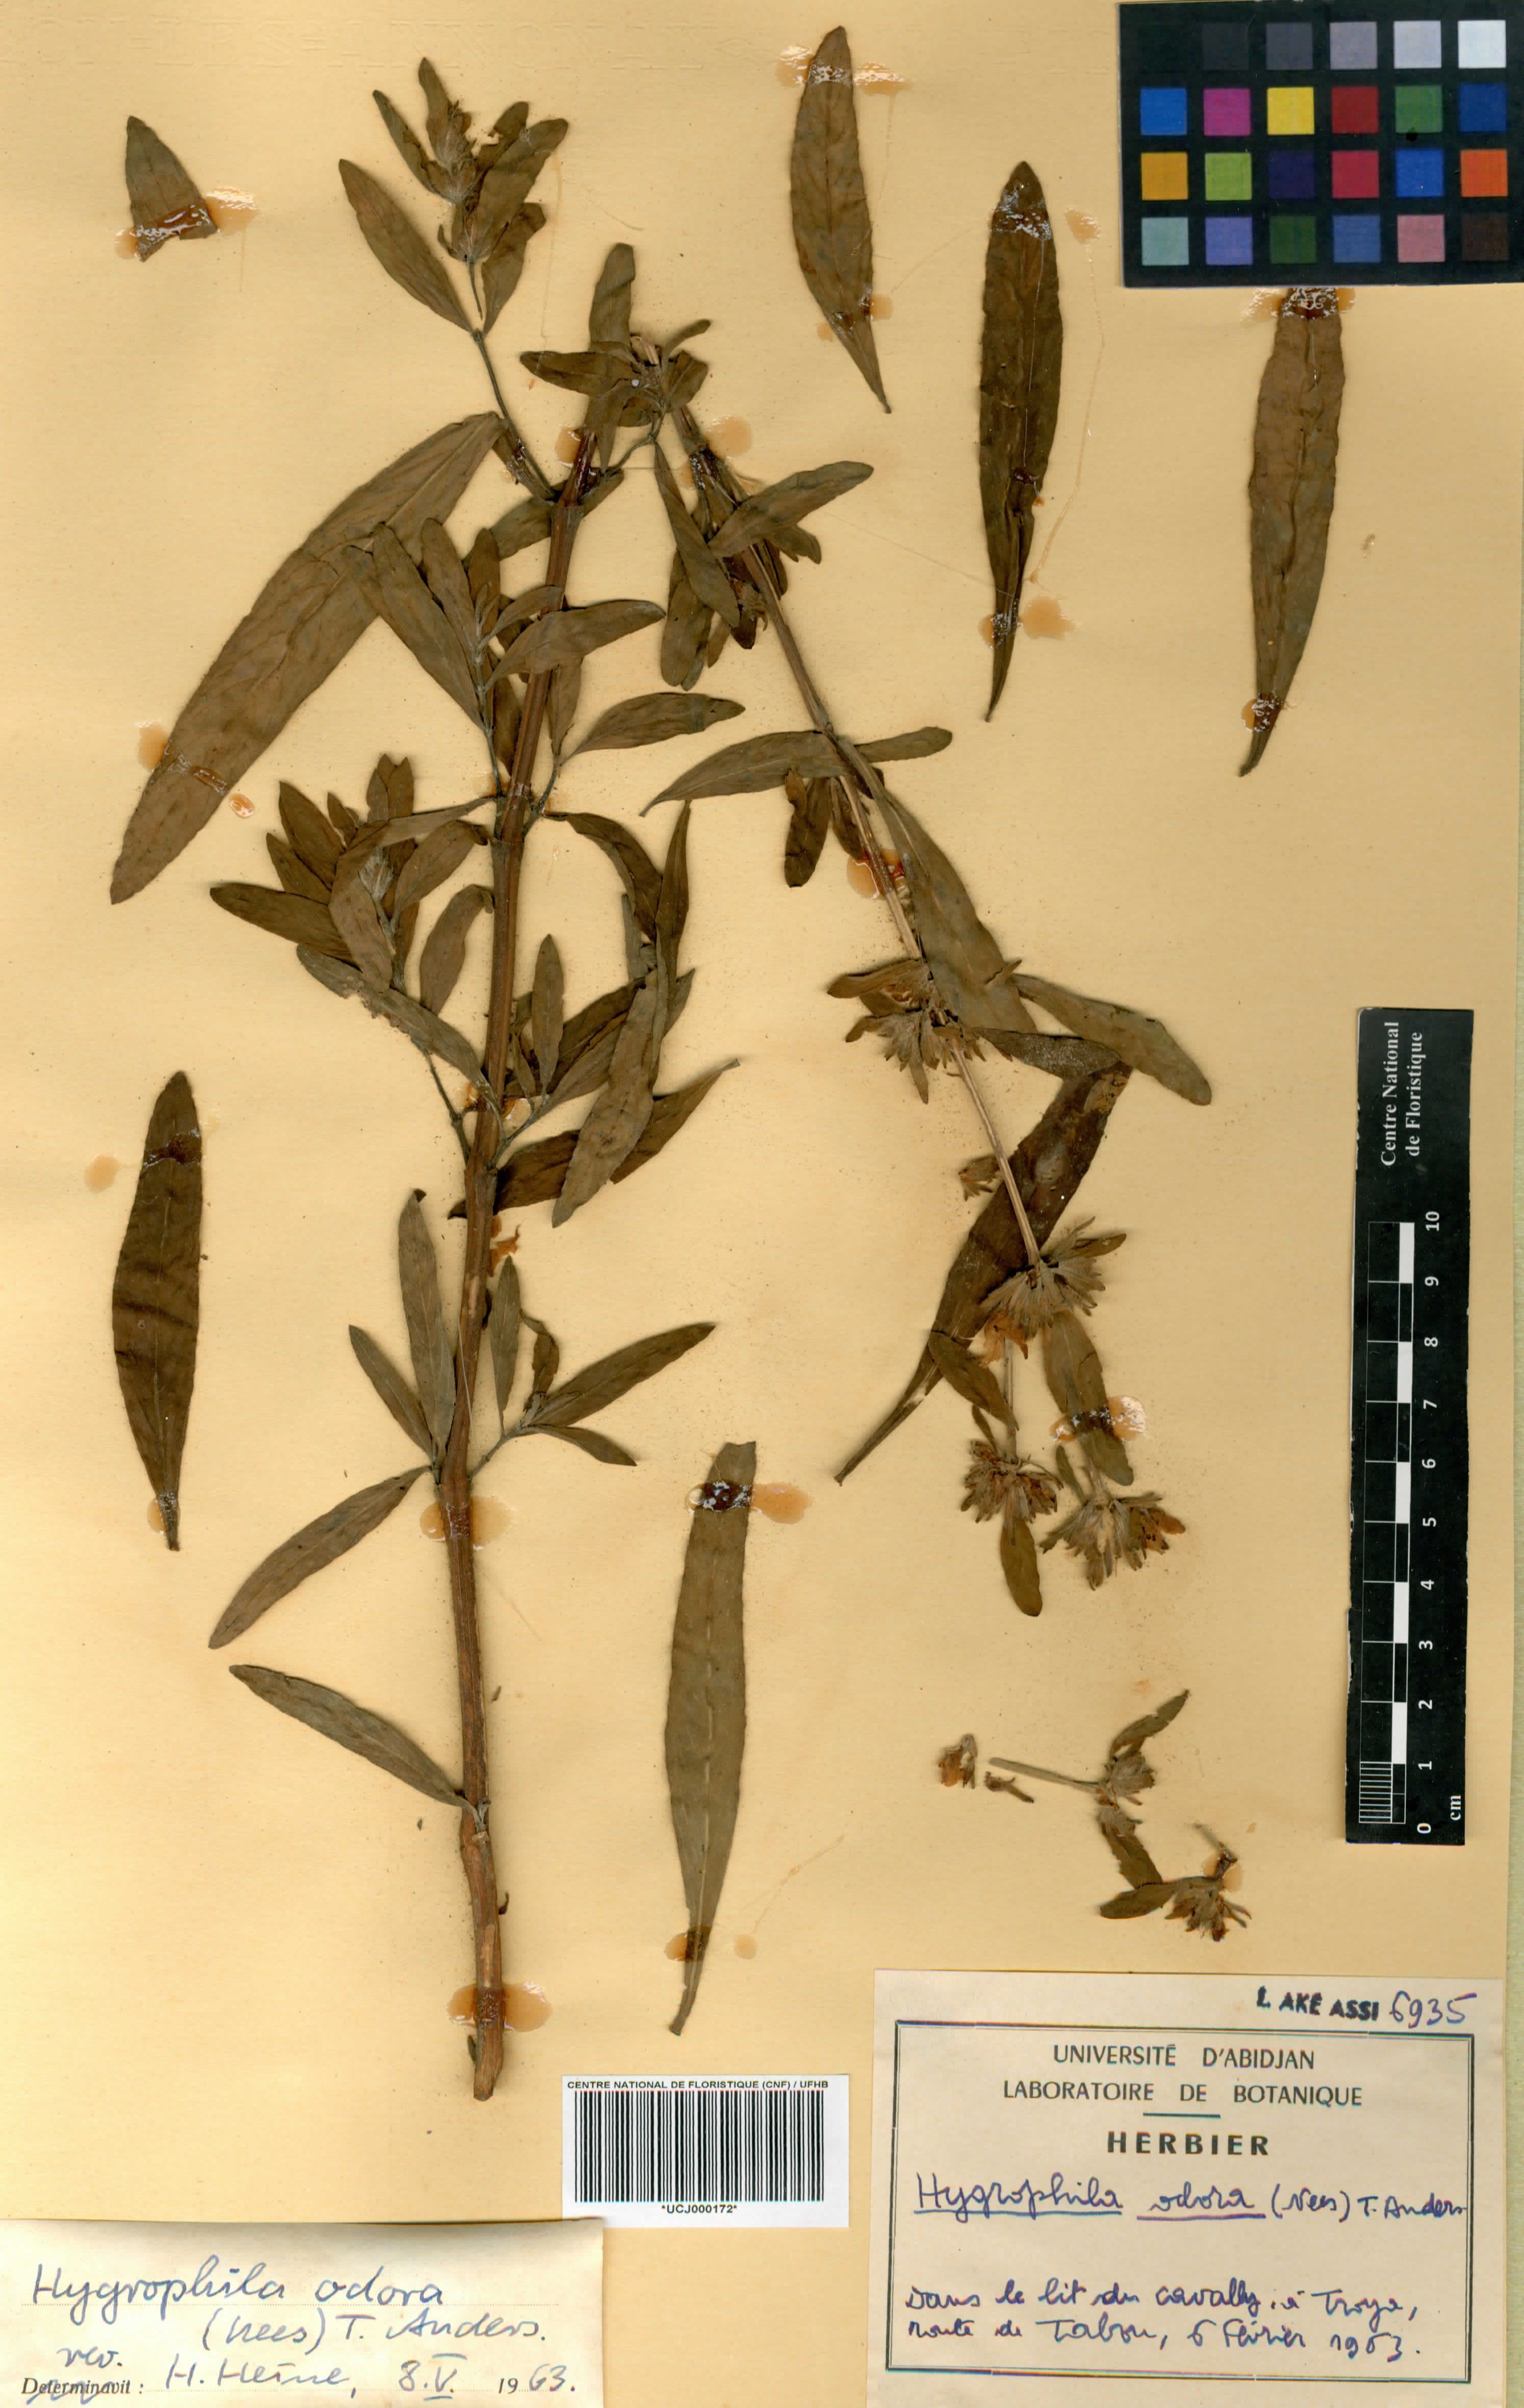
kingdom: Plantae
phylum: Tracheophyta
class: Magnoliopsida
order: Lamiales
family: Acanthaceae
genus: Hygrophila
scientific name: Hygrophila odora
